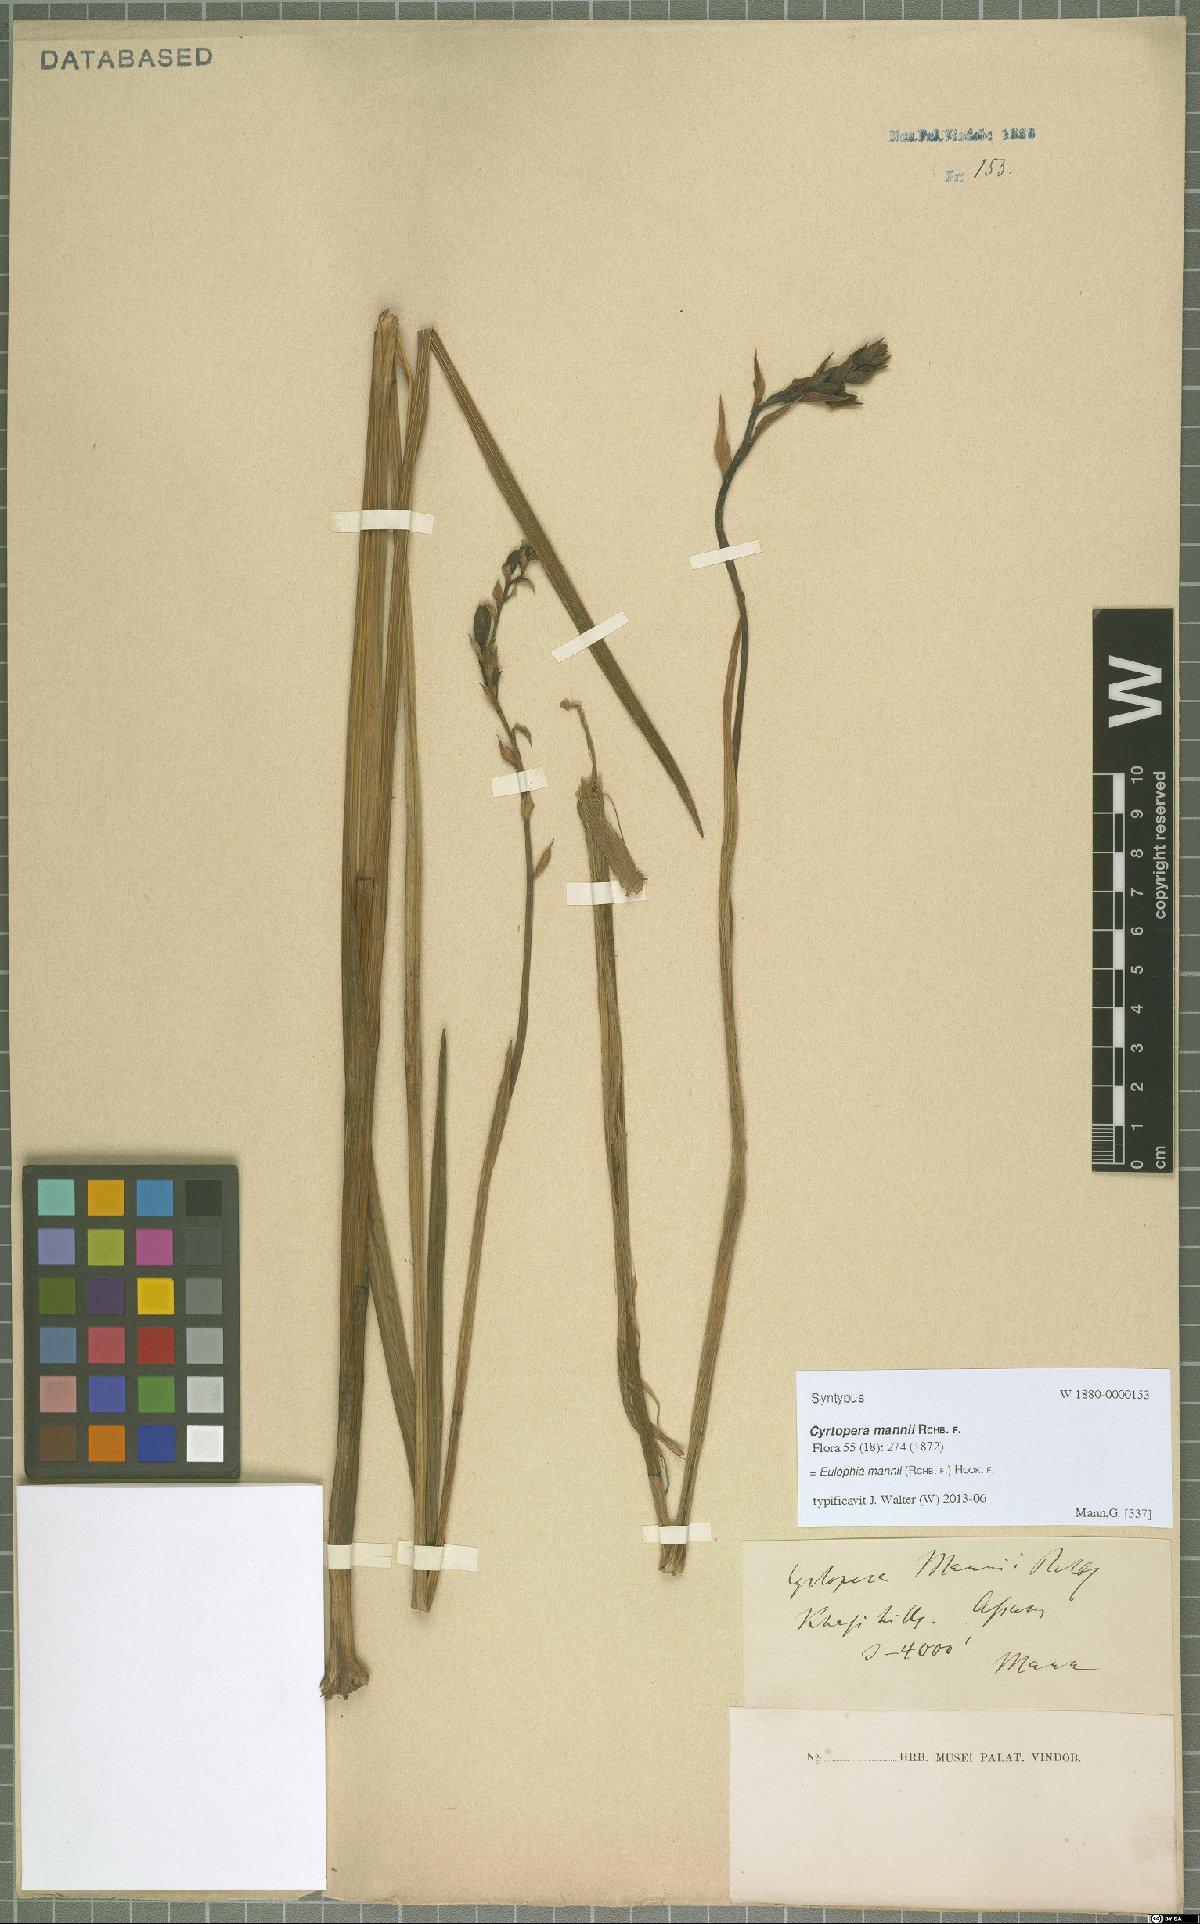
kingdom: Plantae
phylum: Tracheophyta
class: Liliopsida
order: Asparagales
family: Orchidaceae
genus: Eulophia
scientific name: Eulophia mannii
